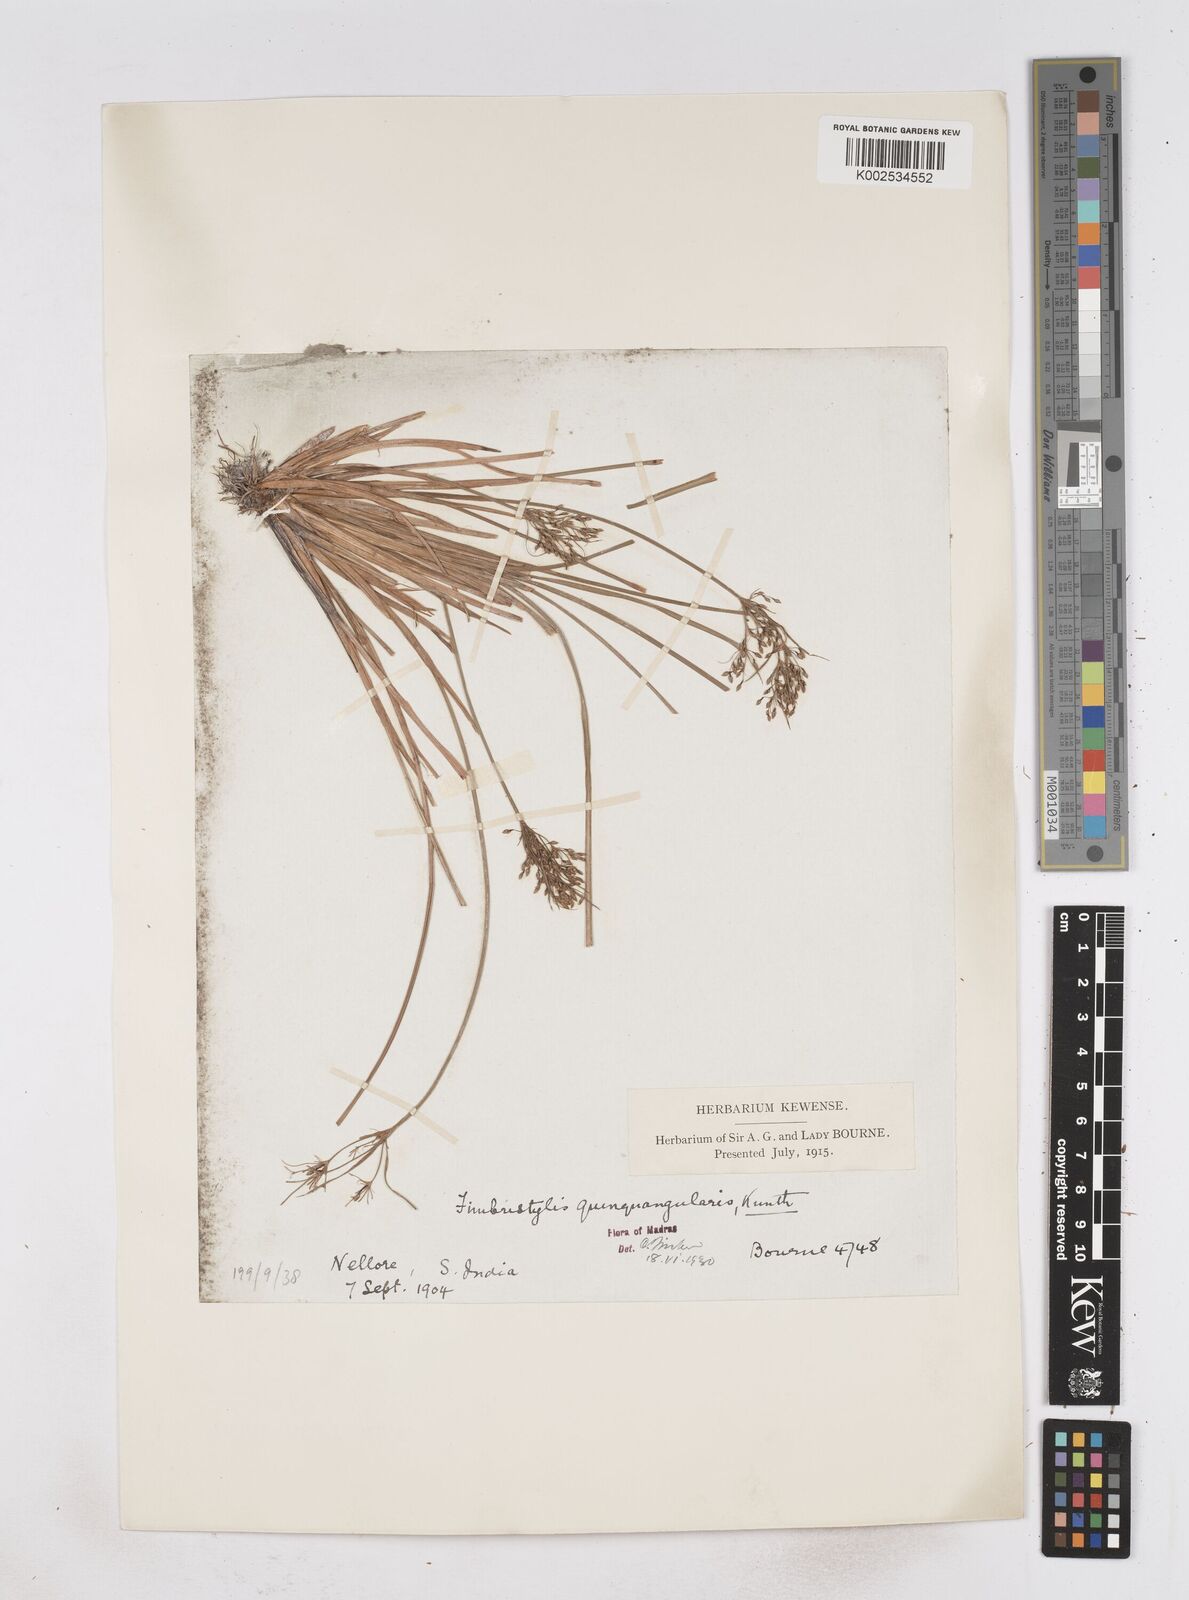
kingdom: Plantae
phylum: Tracheophyta
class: Liliopsida
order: Poales
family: Cyperaceae
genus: Fimbristylis
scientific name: Fimbristylis quinquangularis
